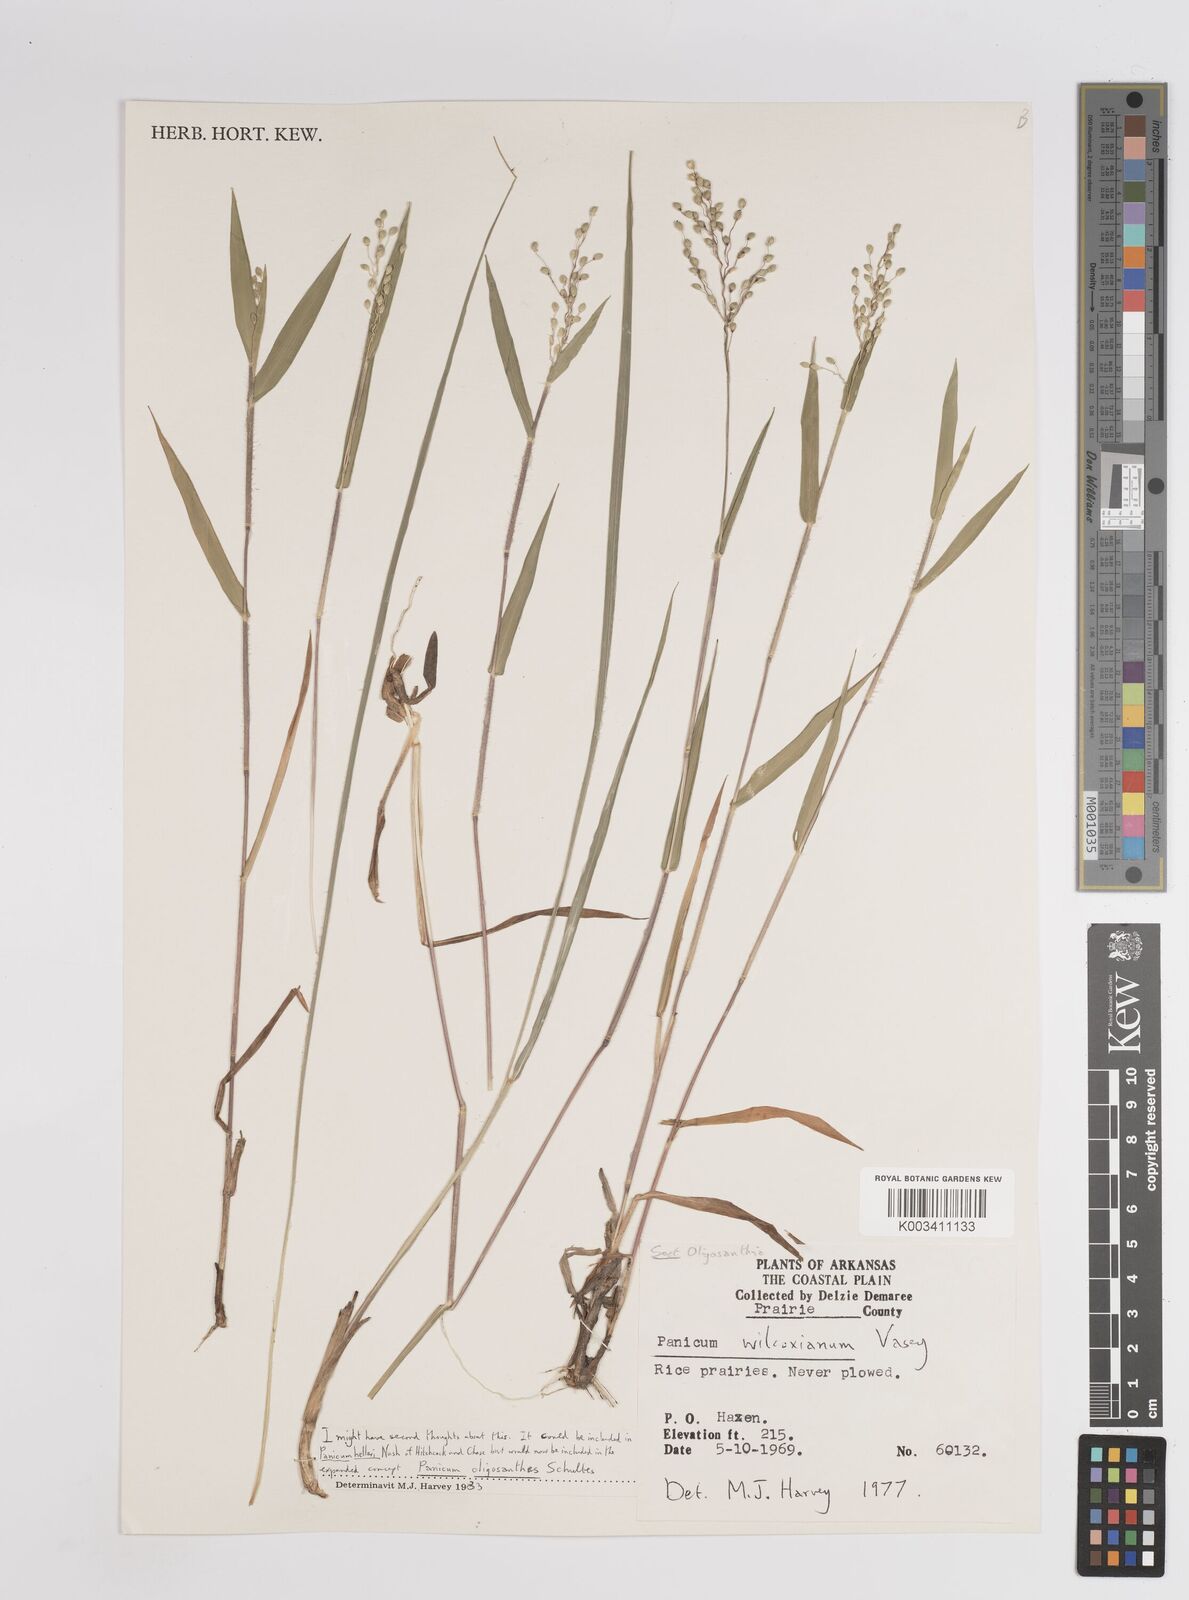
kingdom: Plantae
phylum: Tracheophyta
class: Liliopsida
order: Poales
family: Poaceae
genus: Dichanthelium
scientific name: Dichanthelium wilcoxianum
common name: Wilcox's panicgrass
